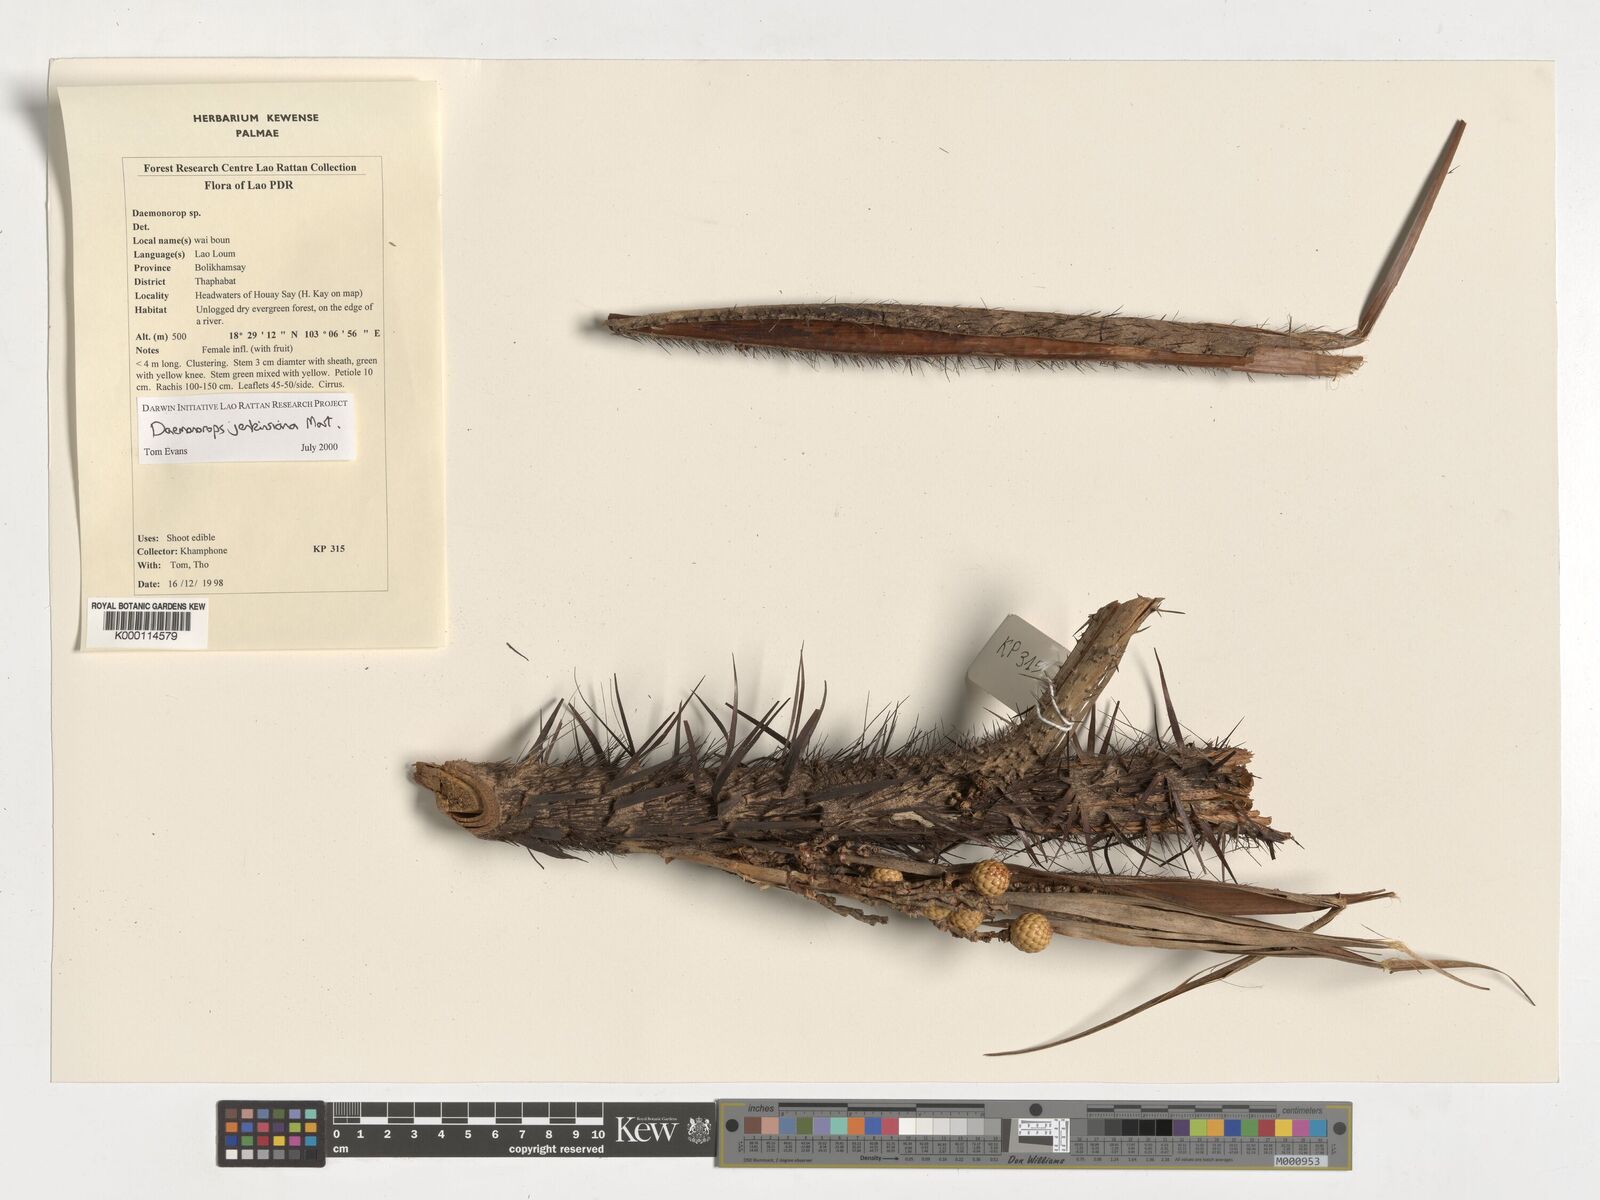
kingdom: Plantae
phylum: Tracheophyta
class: Liliopsida
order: Arecales
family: Arecaceae
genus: Calamus
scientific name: Calamus melanochaetes
